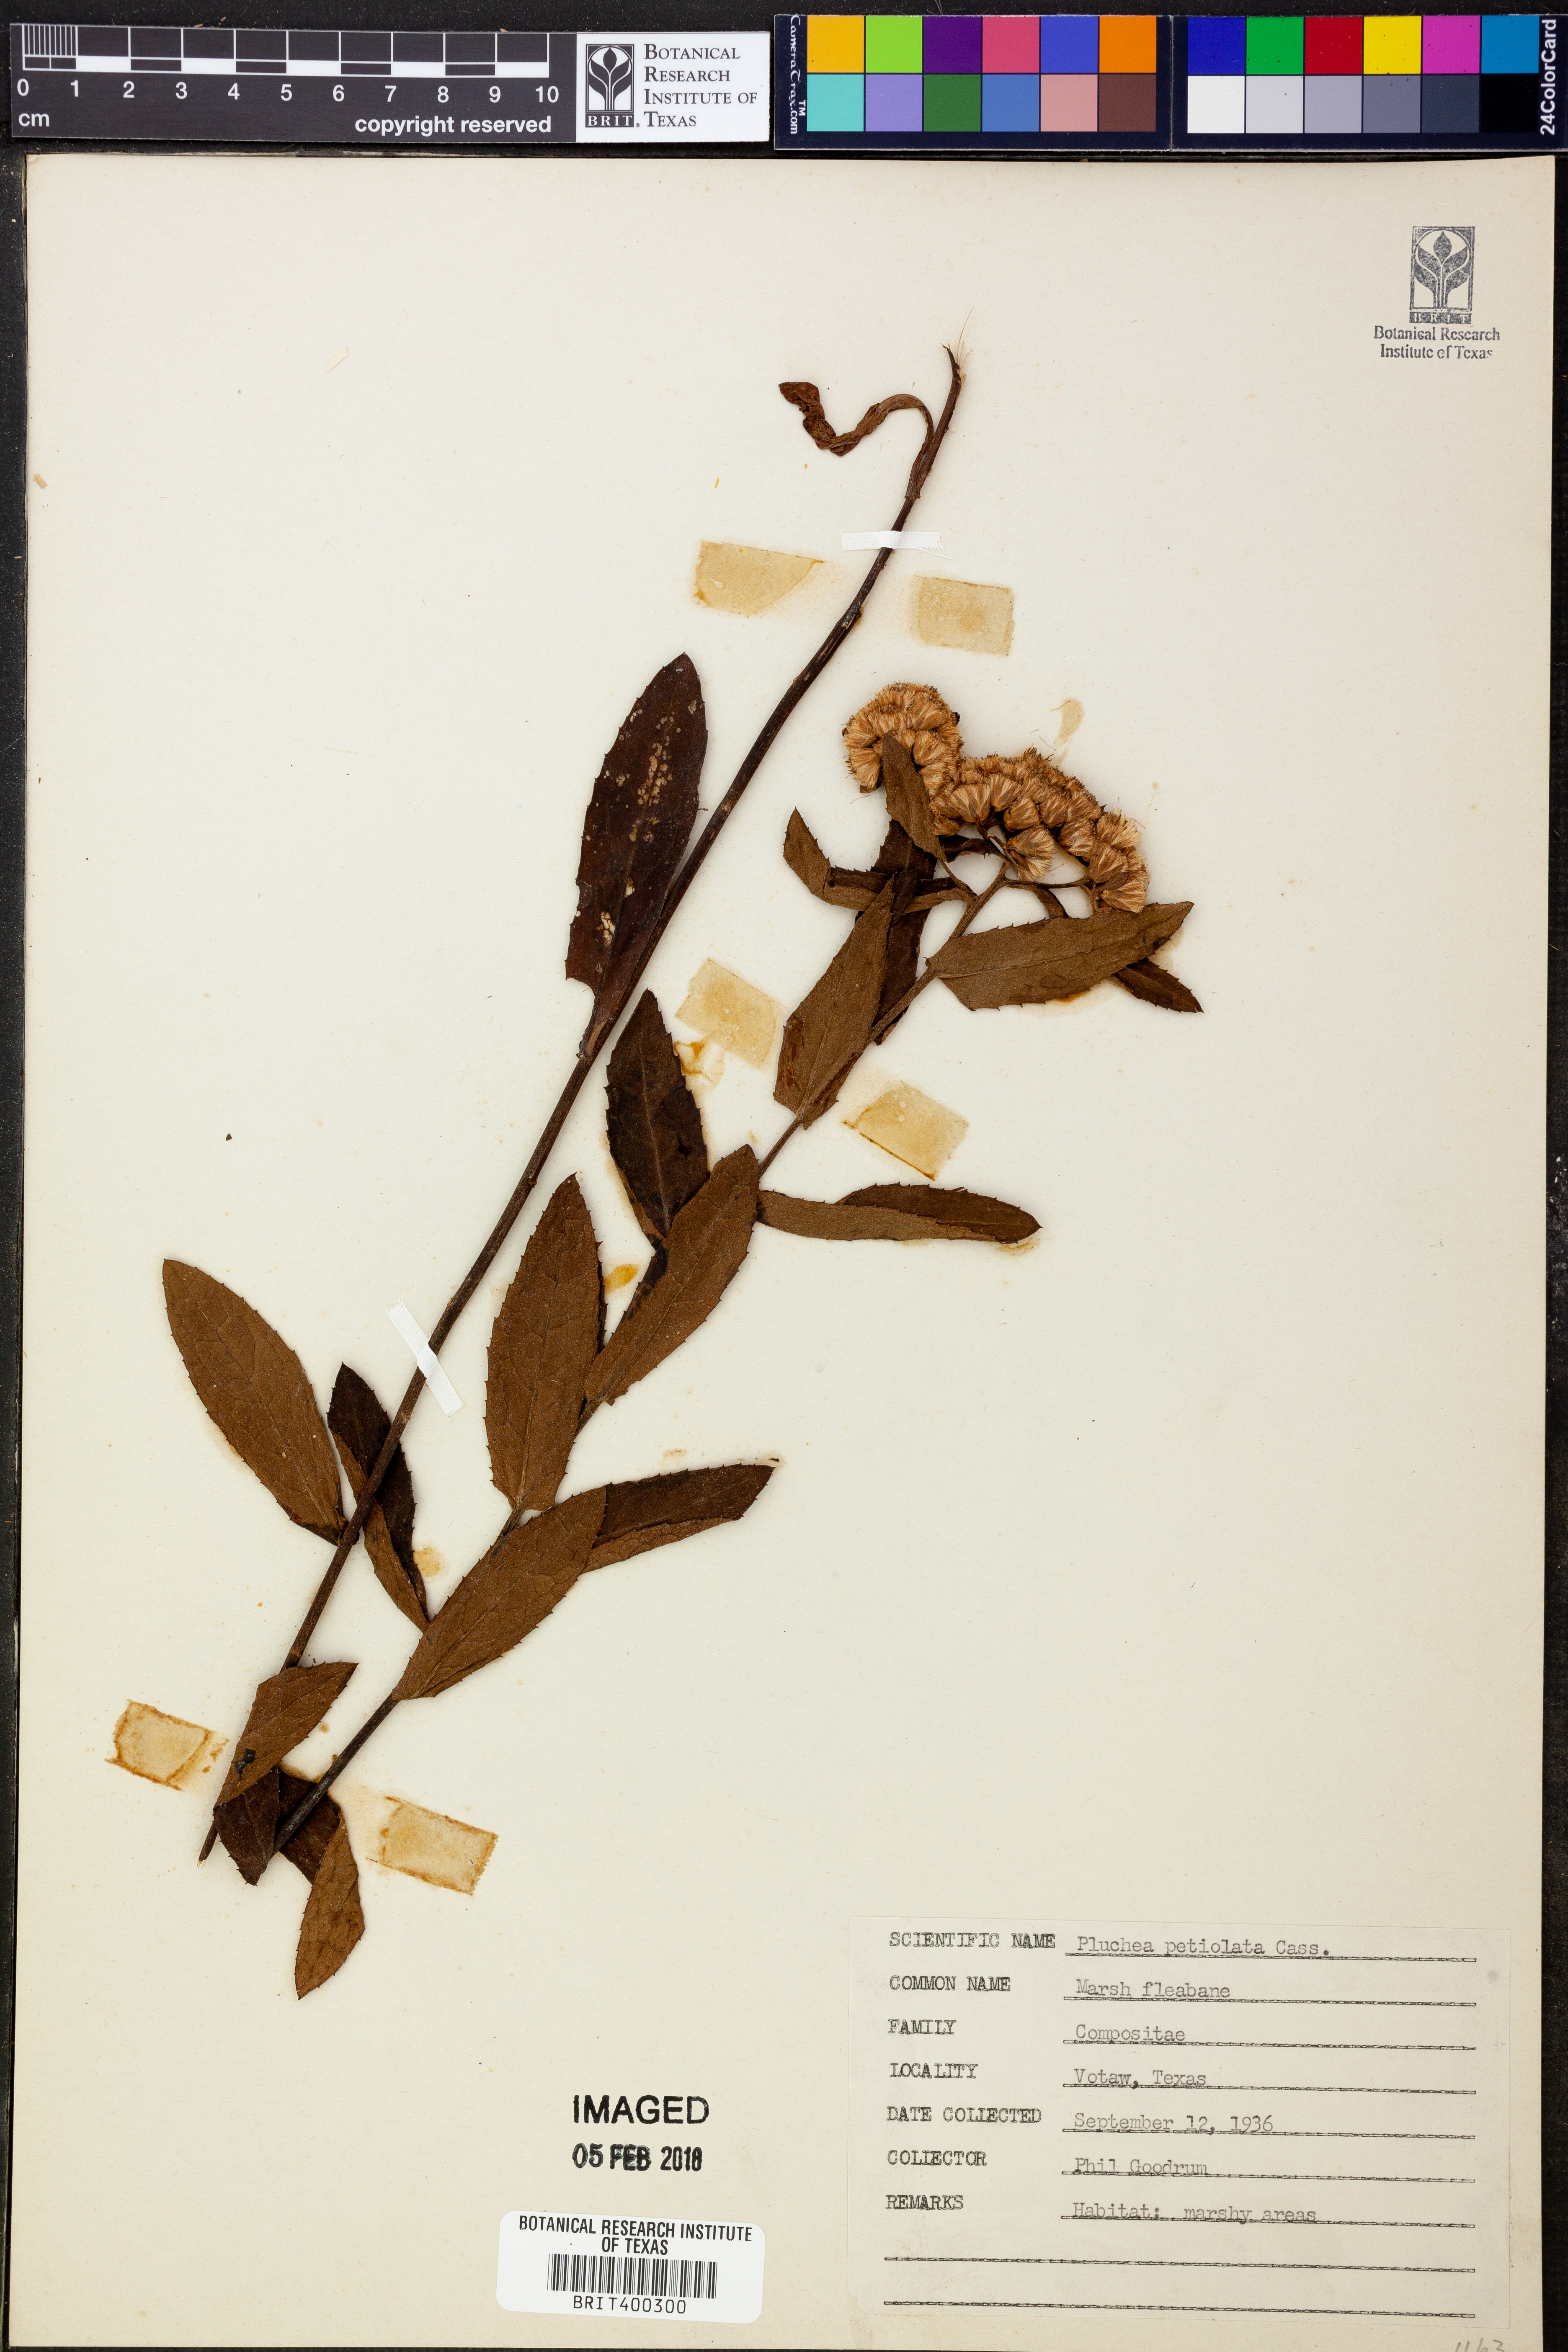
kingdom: Plantae
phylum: Tracheophyta
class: Magnoliopsida
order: Asterales
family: Asteraceae
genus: Pluchea
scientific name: Pluchea odorata
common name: Saltmarsh fleabane
